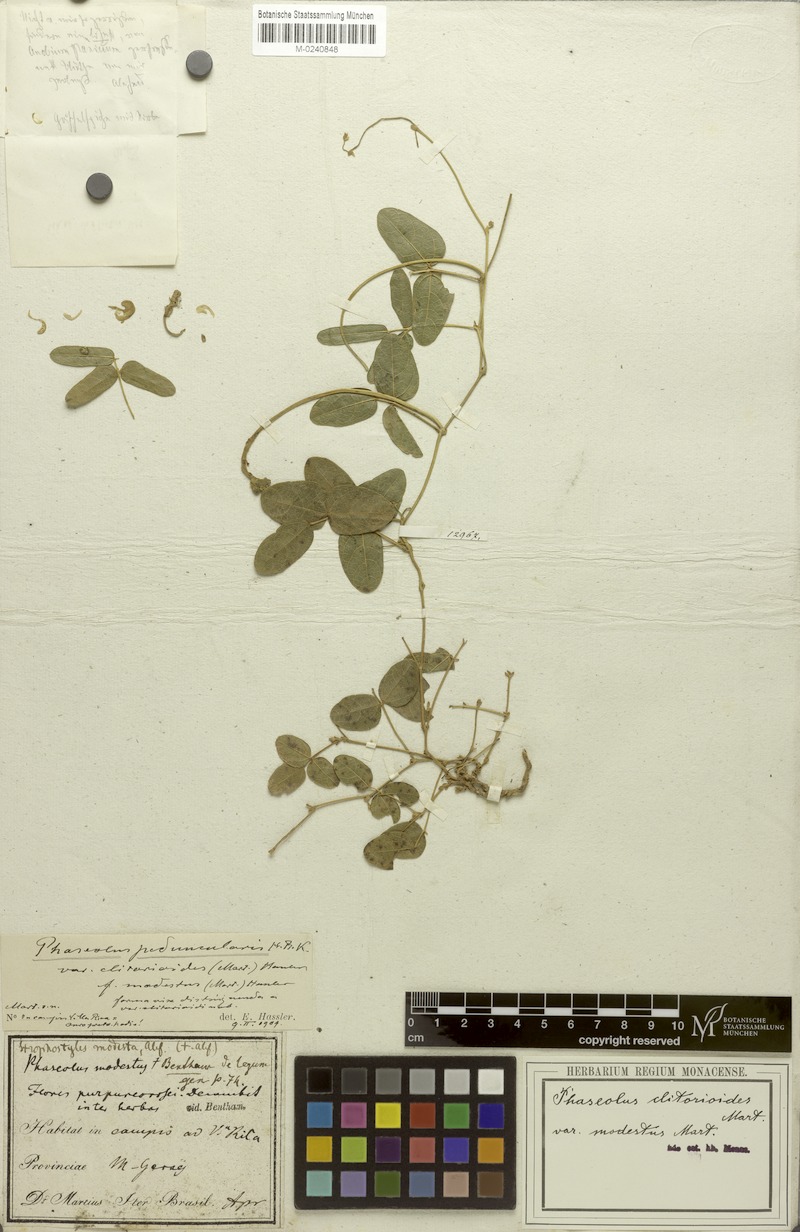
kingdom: Plantae
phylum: Tracheophyta
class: Magnoliopsida
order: Fabales
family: Fabaceae
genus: Ancistrotropis
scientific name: Ancistrotropis clitorioides
